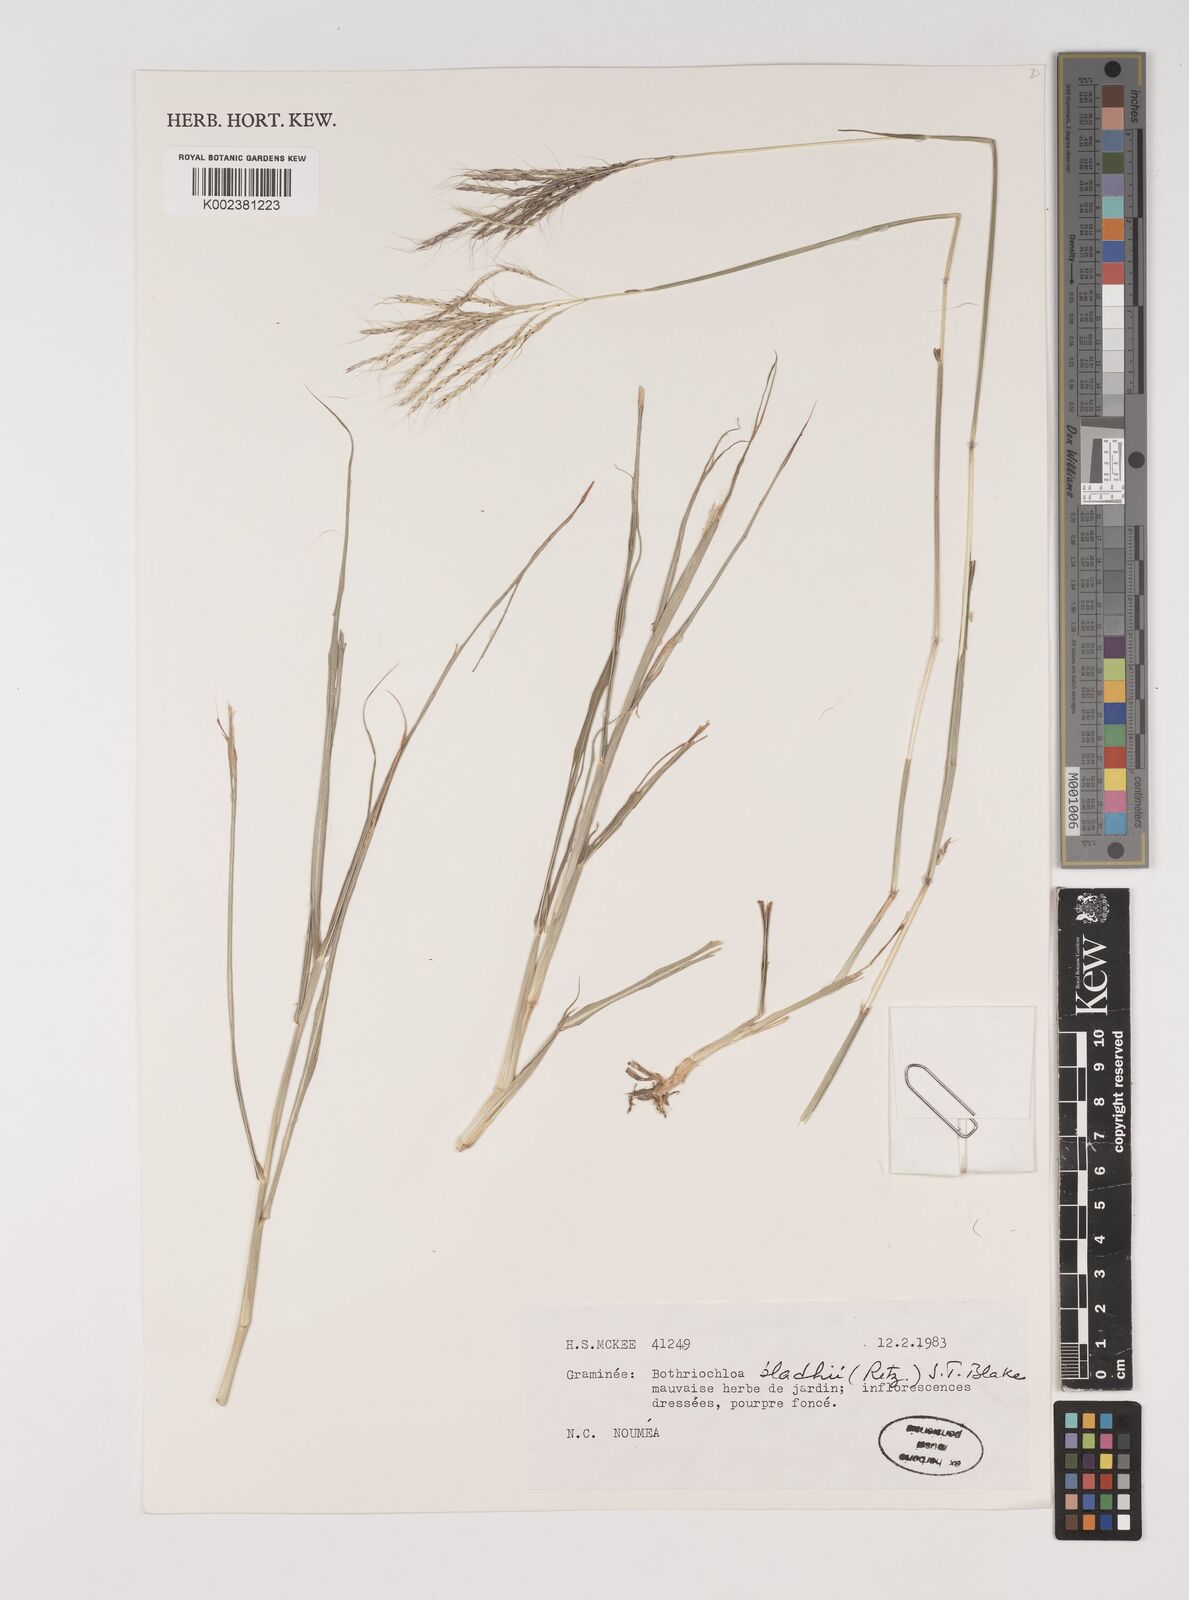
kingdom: Plantae
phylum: Tracheophyta
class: Liliopsida
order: Poales
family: Poaceae
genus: Bothriochloa
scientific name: Bothriochloa bladhii
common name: Caucasian bluestem
